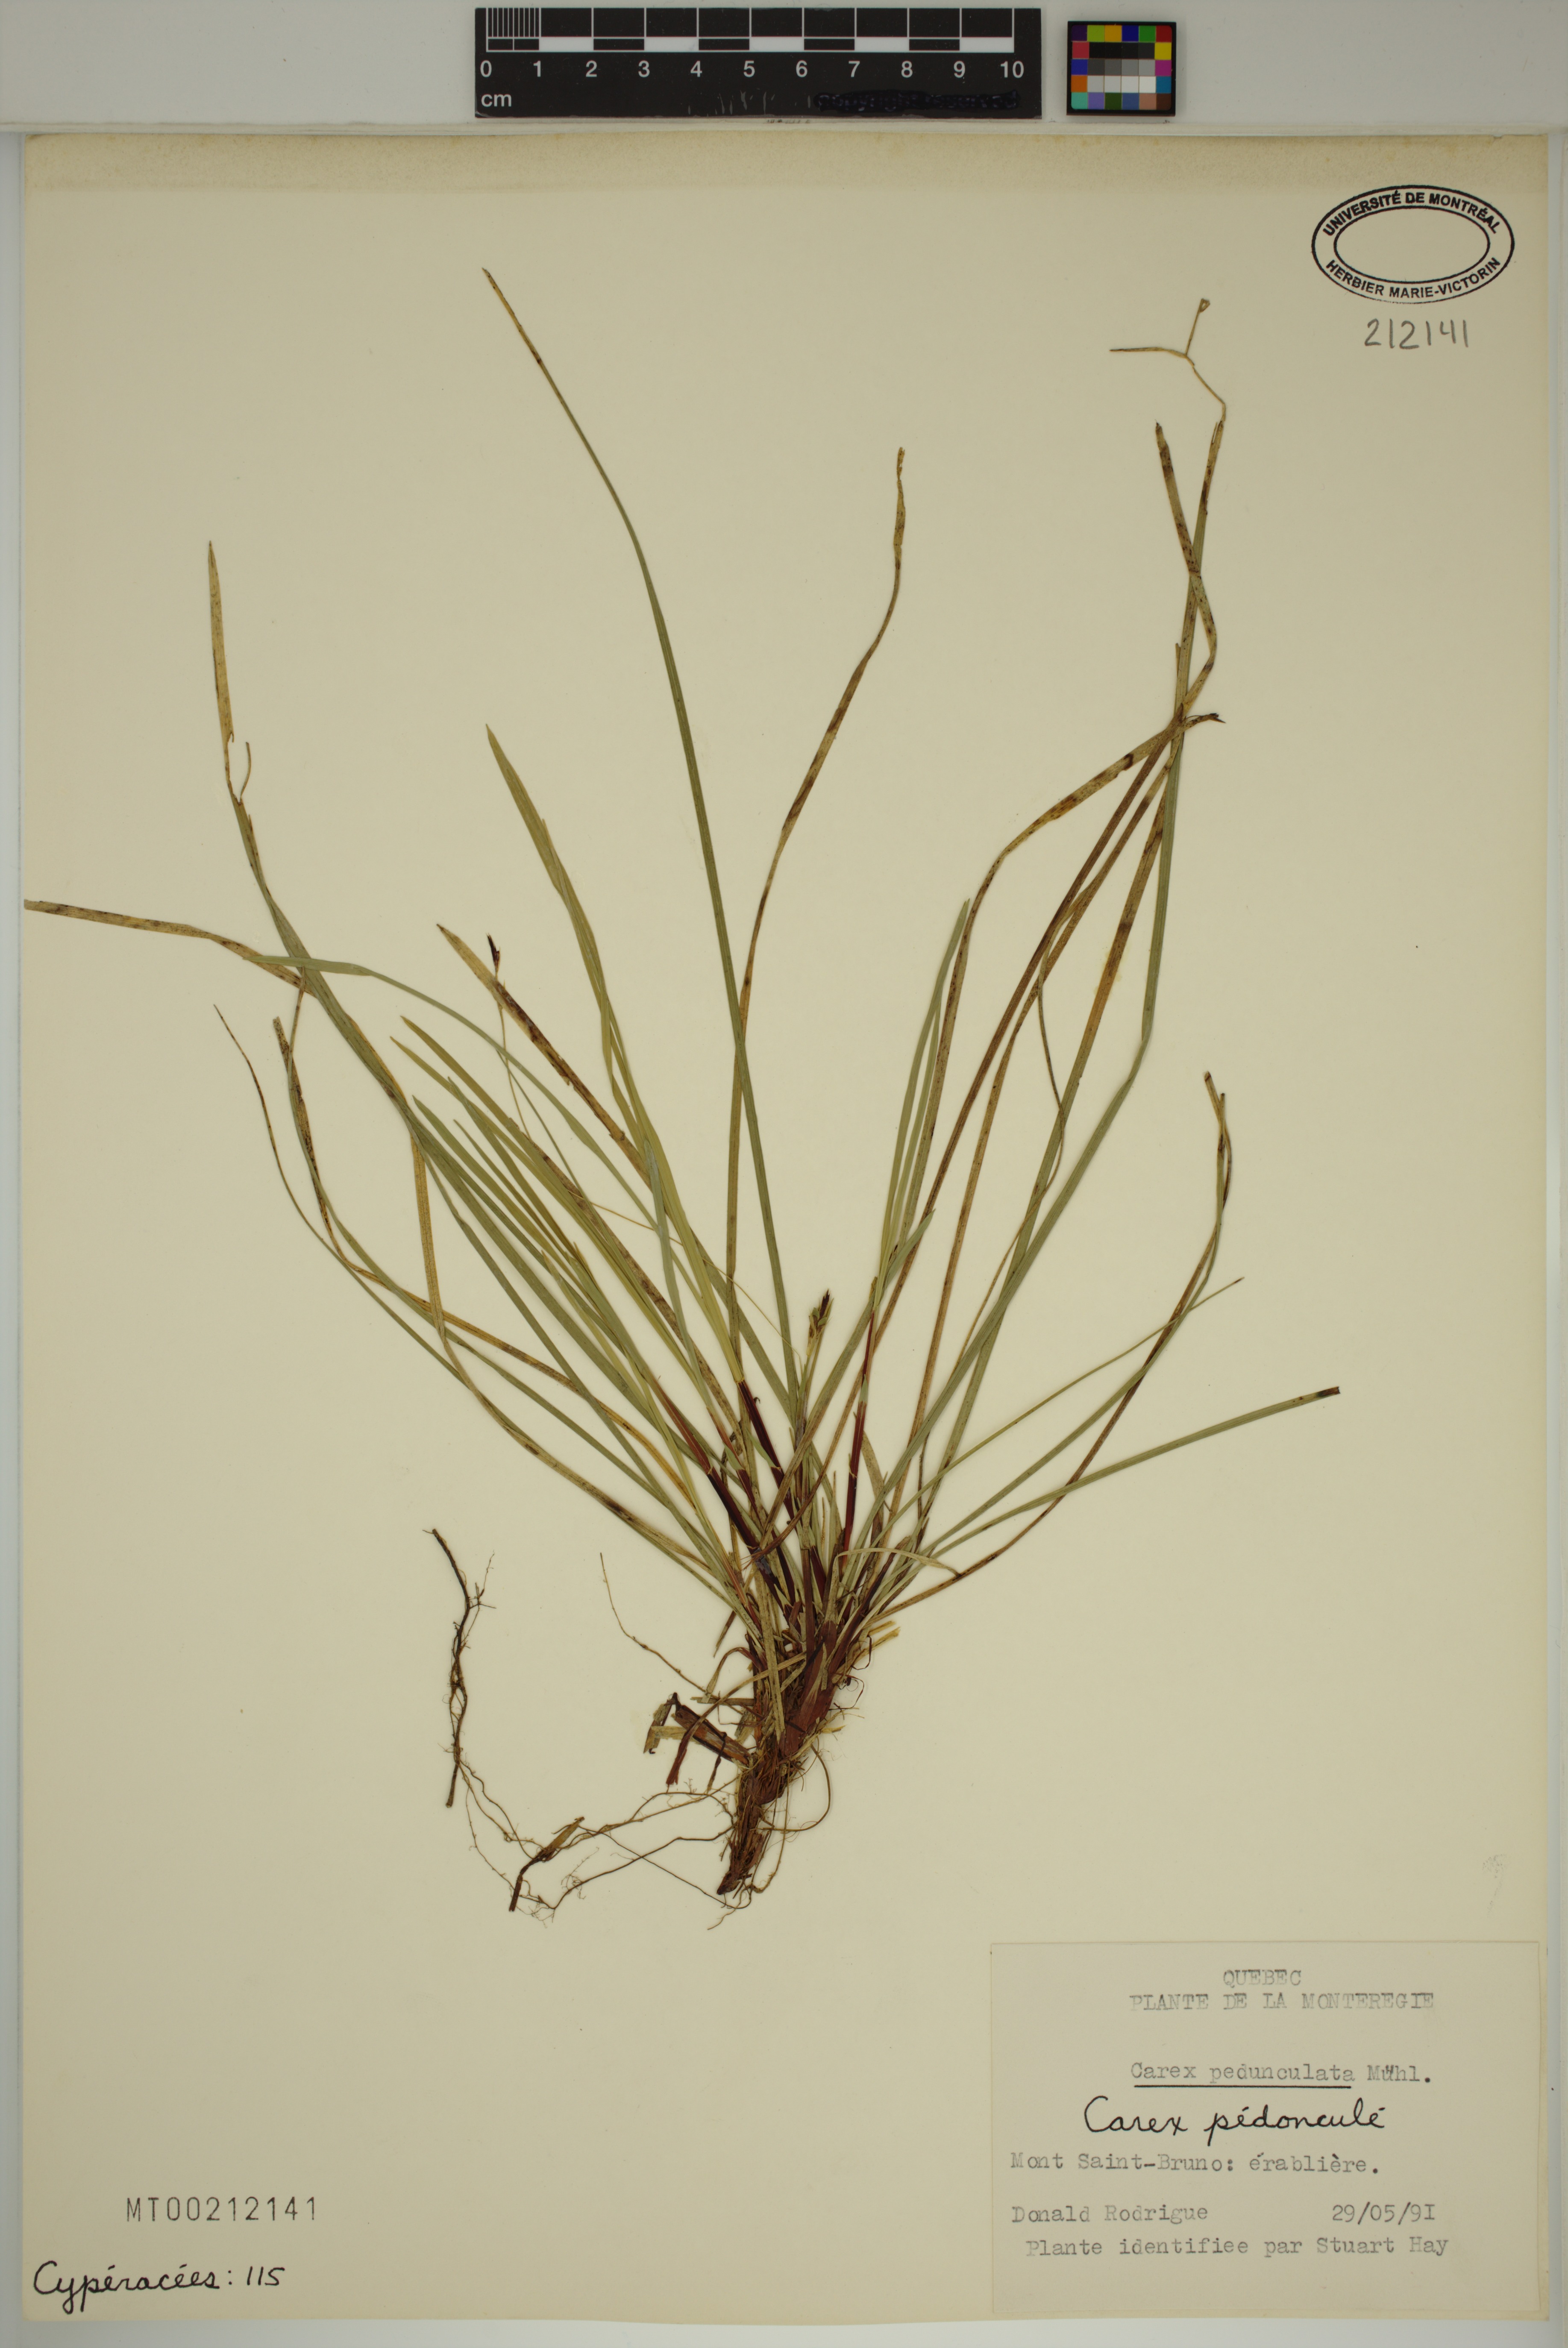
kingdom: Plantae
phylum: Tracheophyta
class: Liliopsida
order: Poales
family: Cyperaceae
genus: Carex
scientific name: Carex pedunculata
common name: Pedunculate sedge
